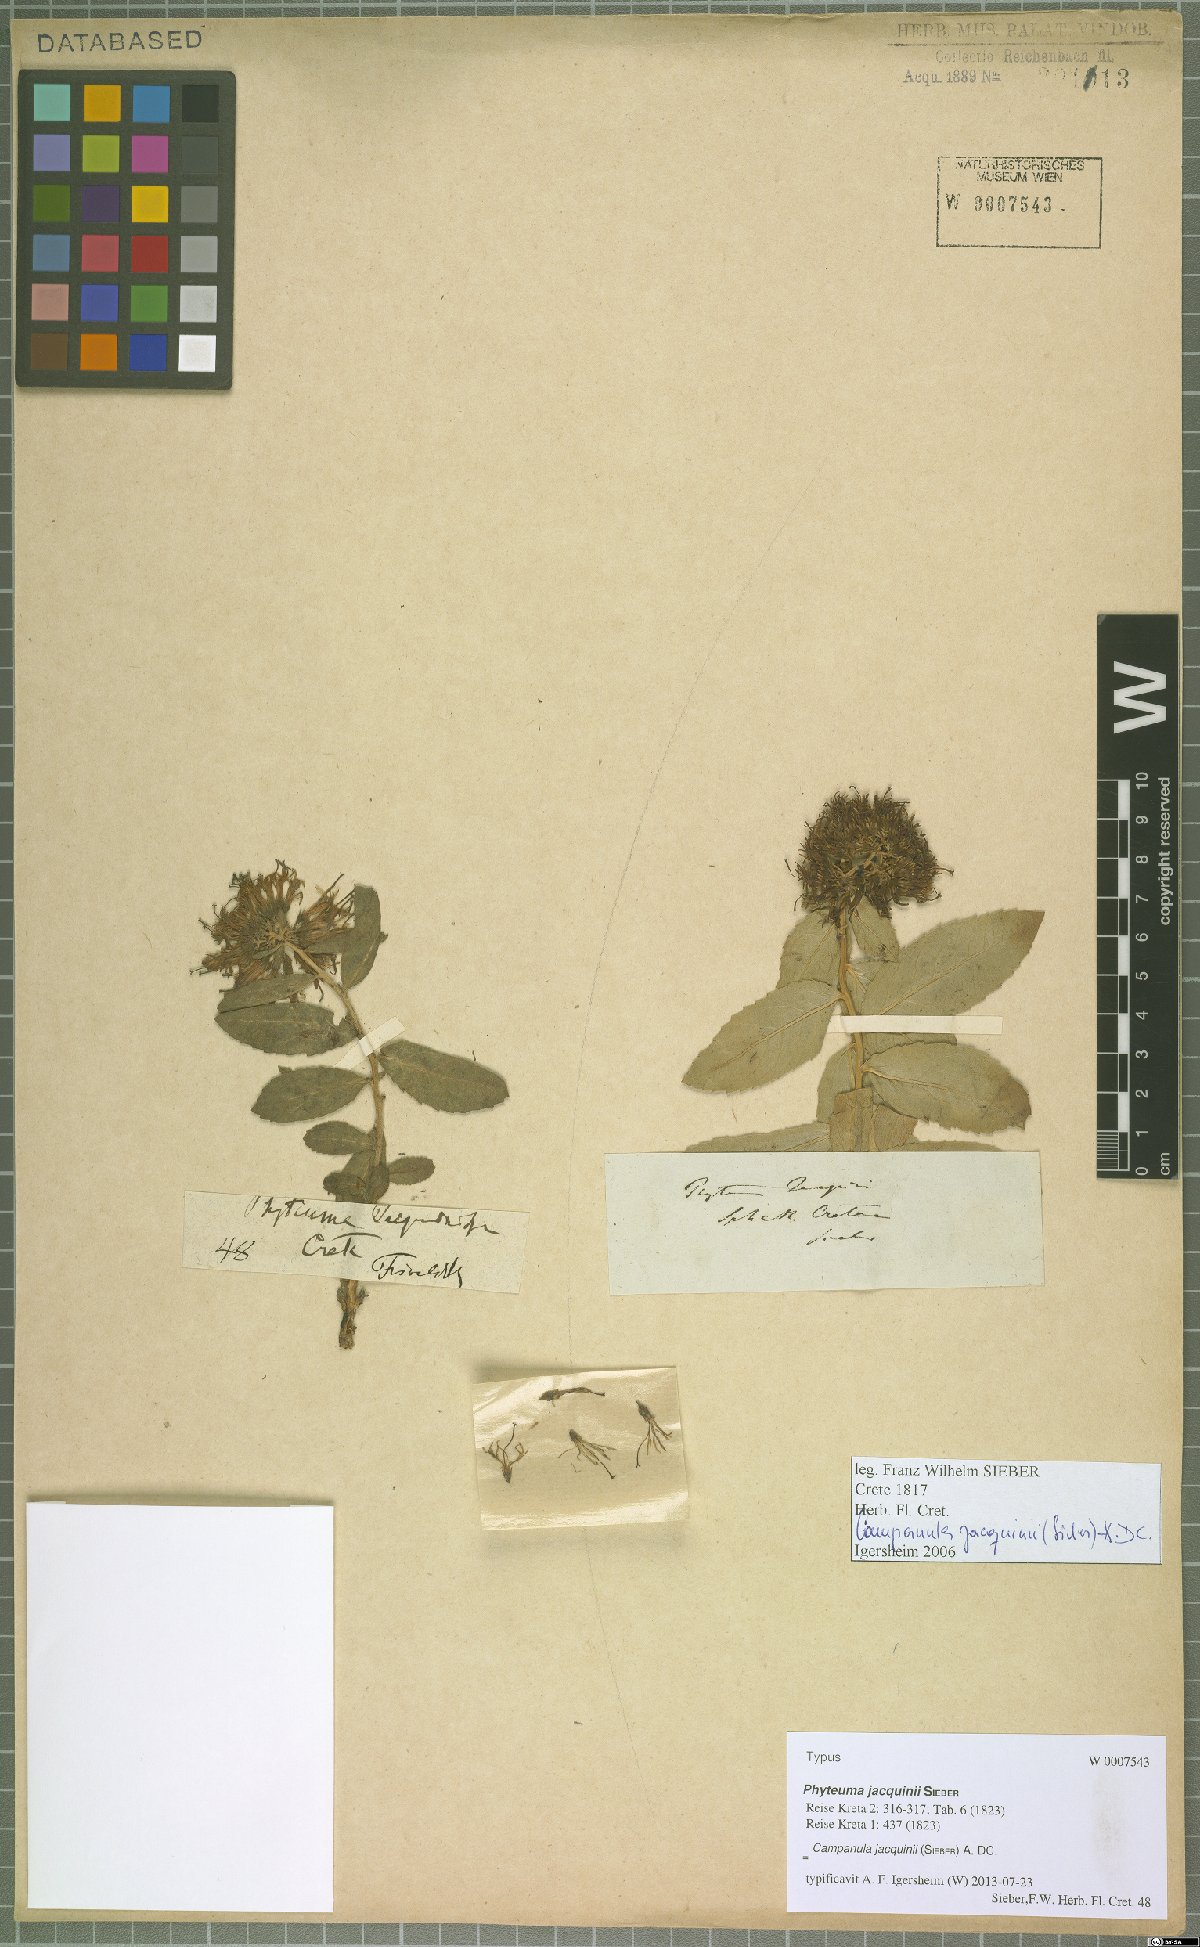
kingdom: Plantae
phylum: Tracheophyta
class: Magnoliopsida
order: Asterales
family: Campanulaceae
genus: Campanula
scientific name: Campanula jacquinii
